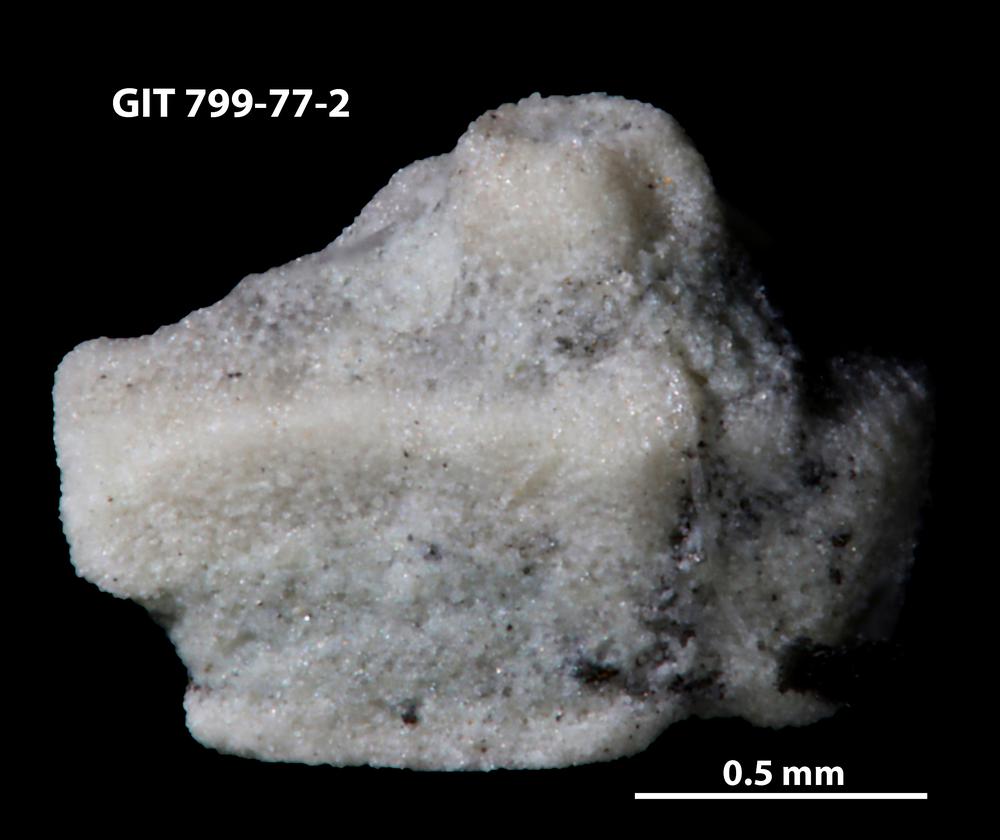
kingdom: Animalia
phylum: Echinodermata
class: Echinoidea
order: Bothriocidaroida
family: Bothriocidaridae
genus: Neobothriocidaris
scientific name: Neobothriocidaris
